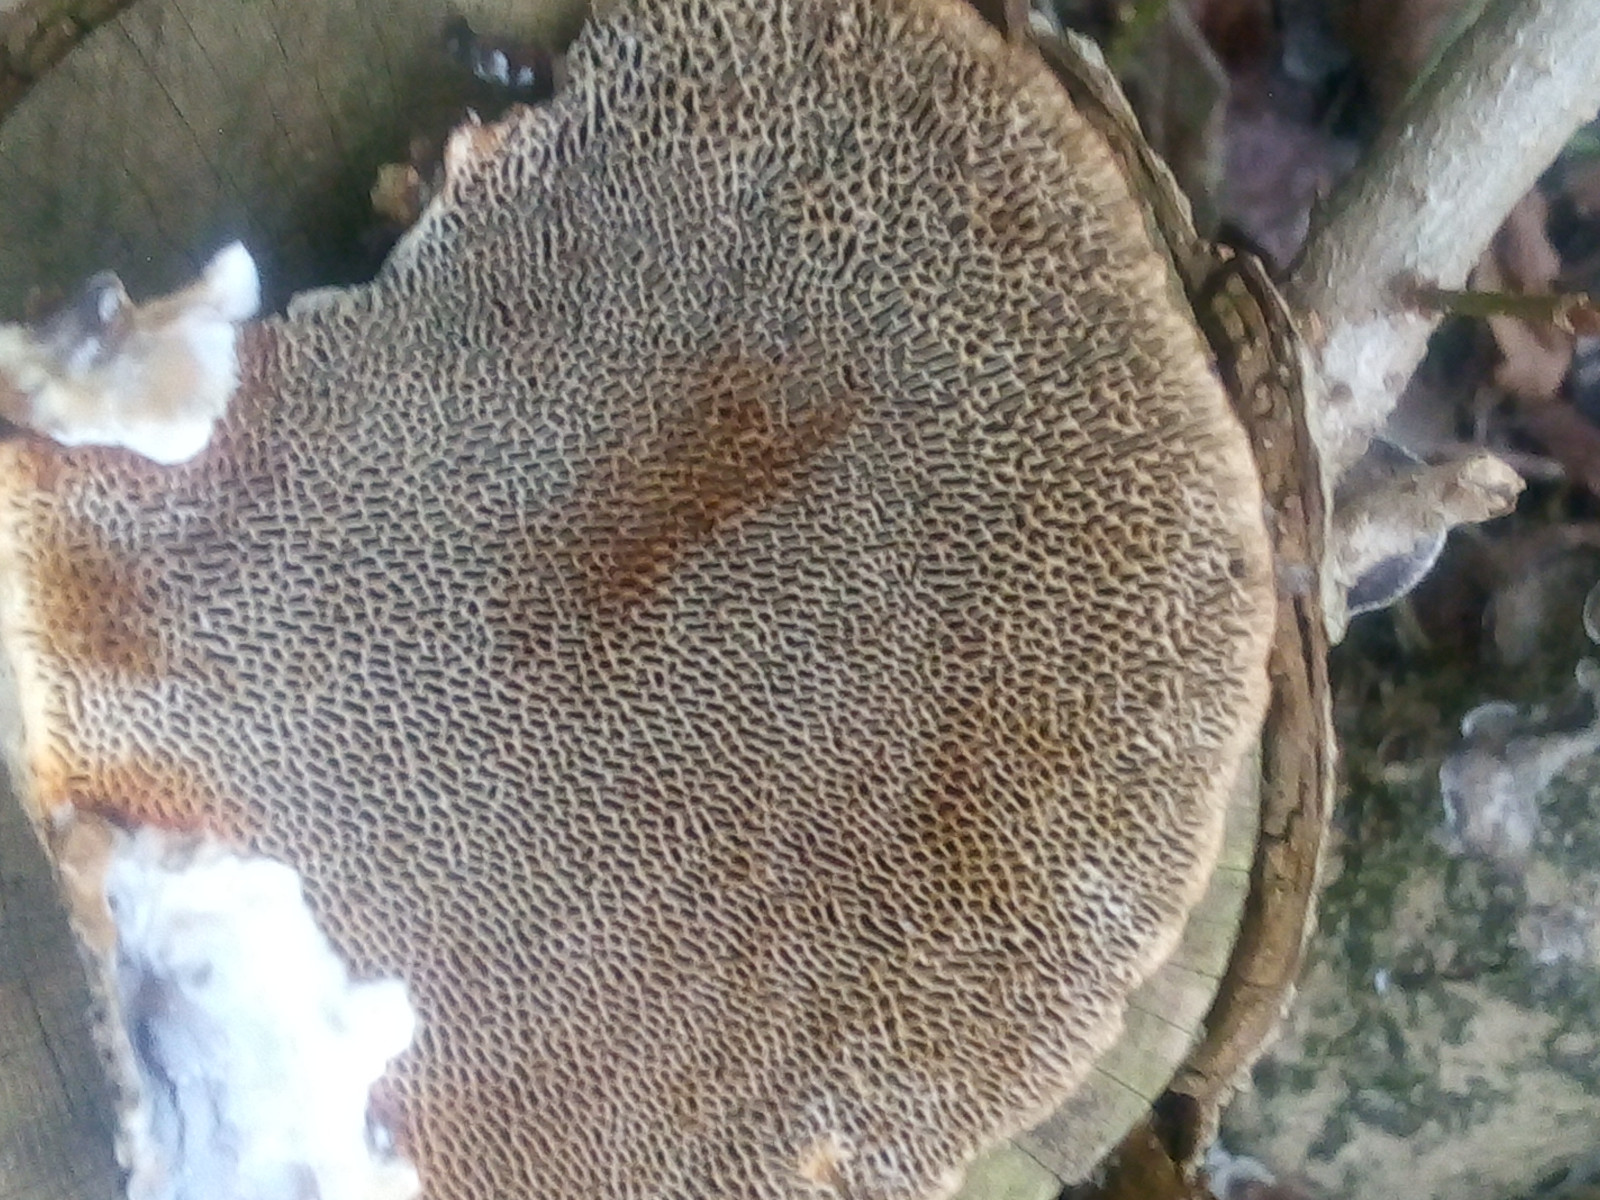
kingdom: Fungi
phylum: Basidiomycota
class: Agaricomycetes
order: Polyporales
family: Polyporaceae
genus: Daedaleopsis
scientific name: Daedaleopsis confragosa
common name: rødmende læderporesvamp
